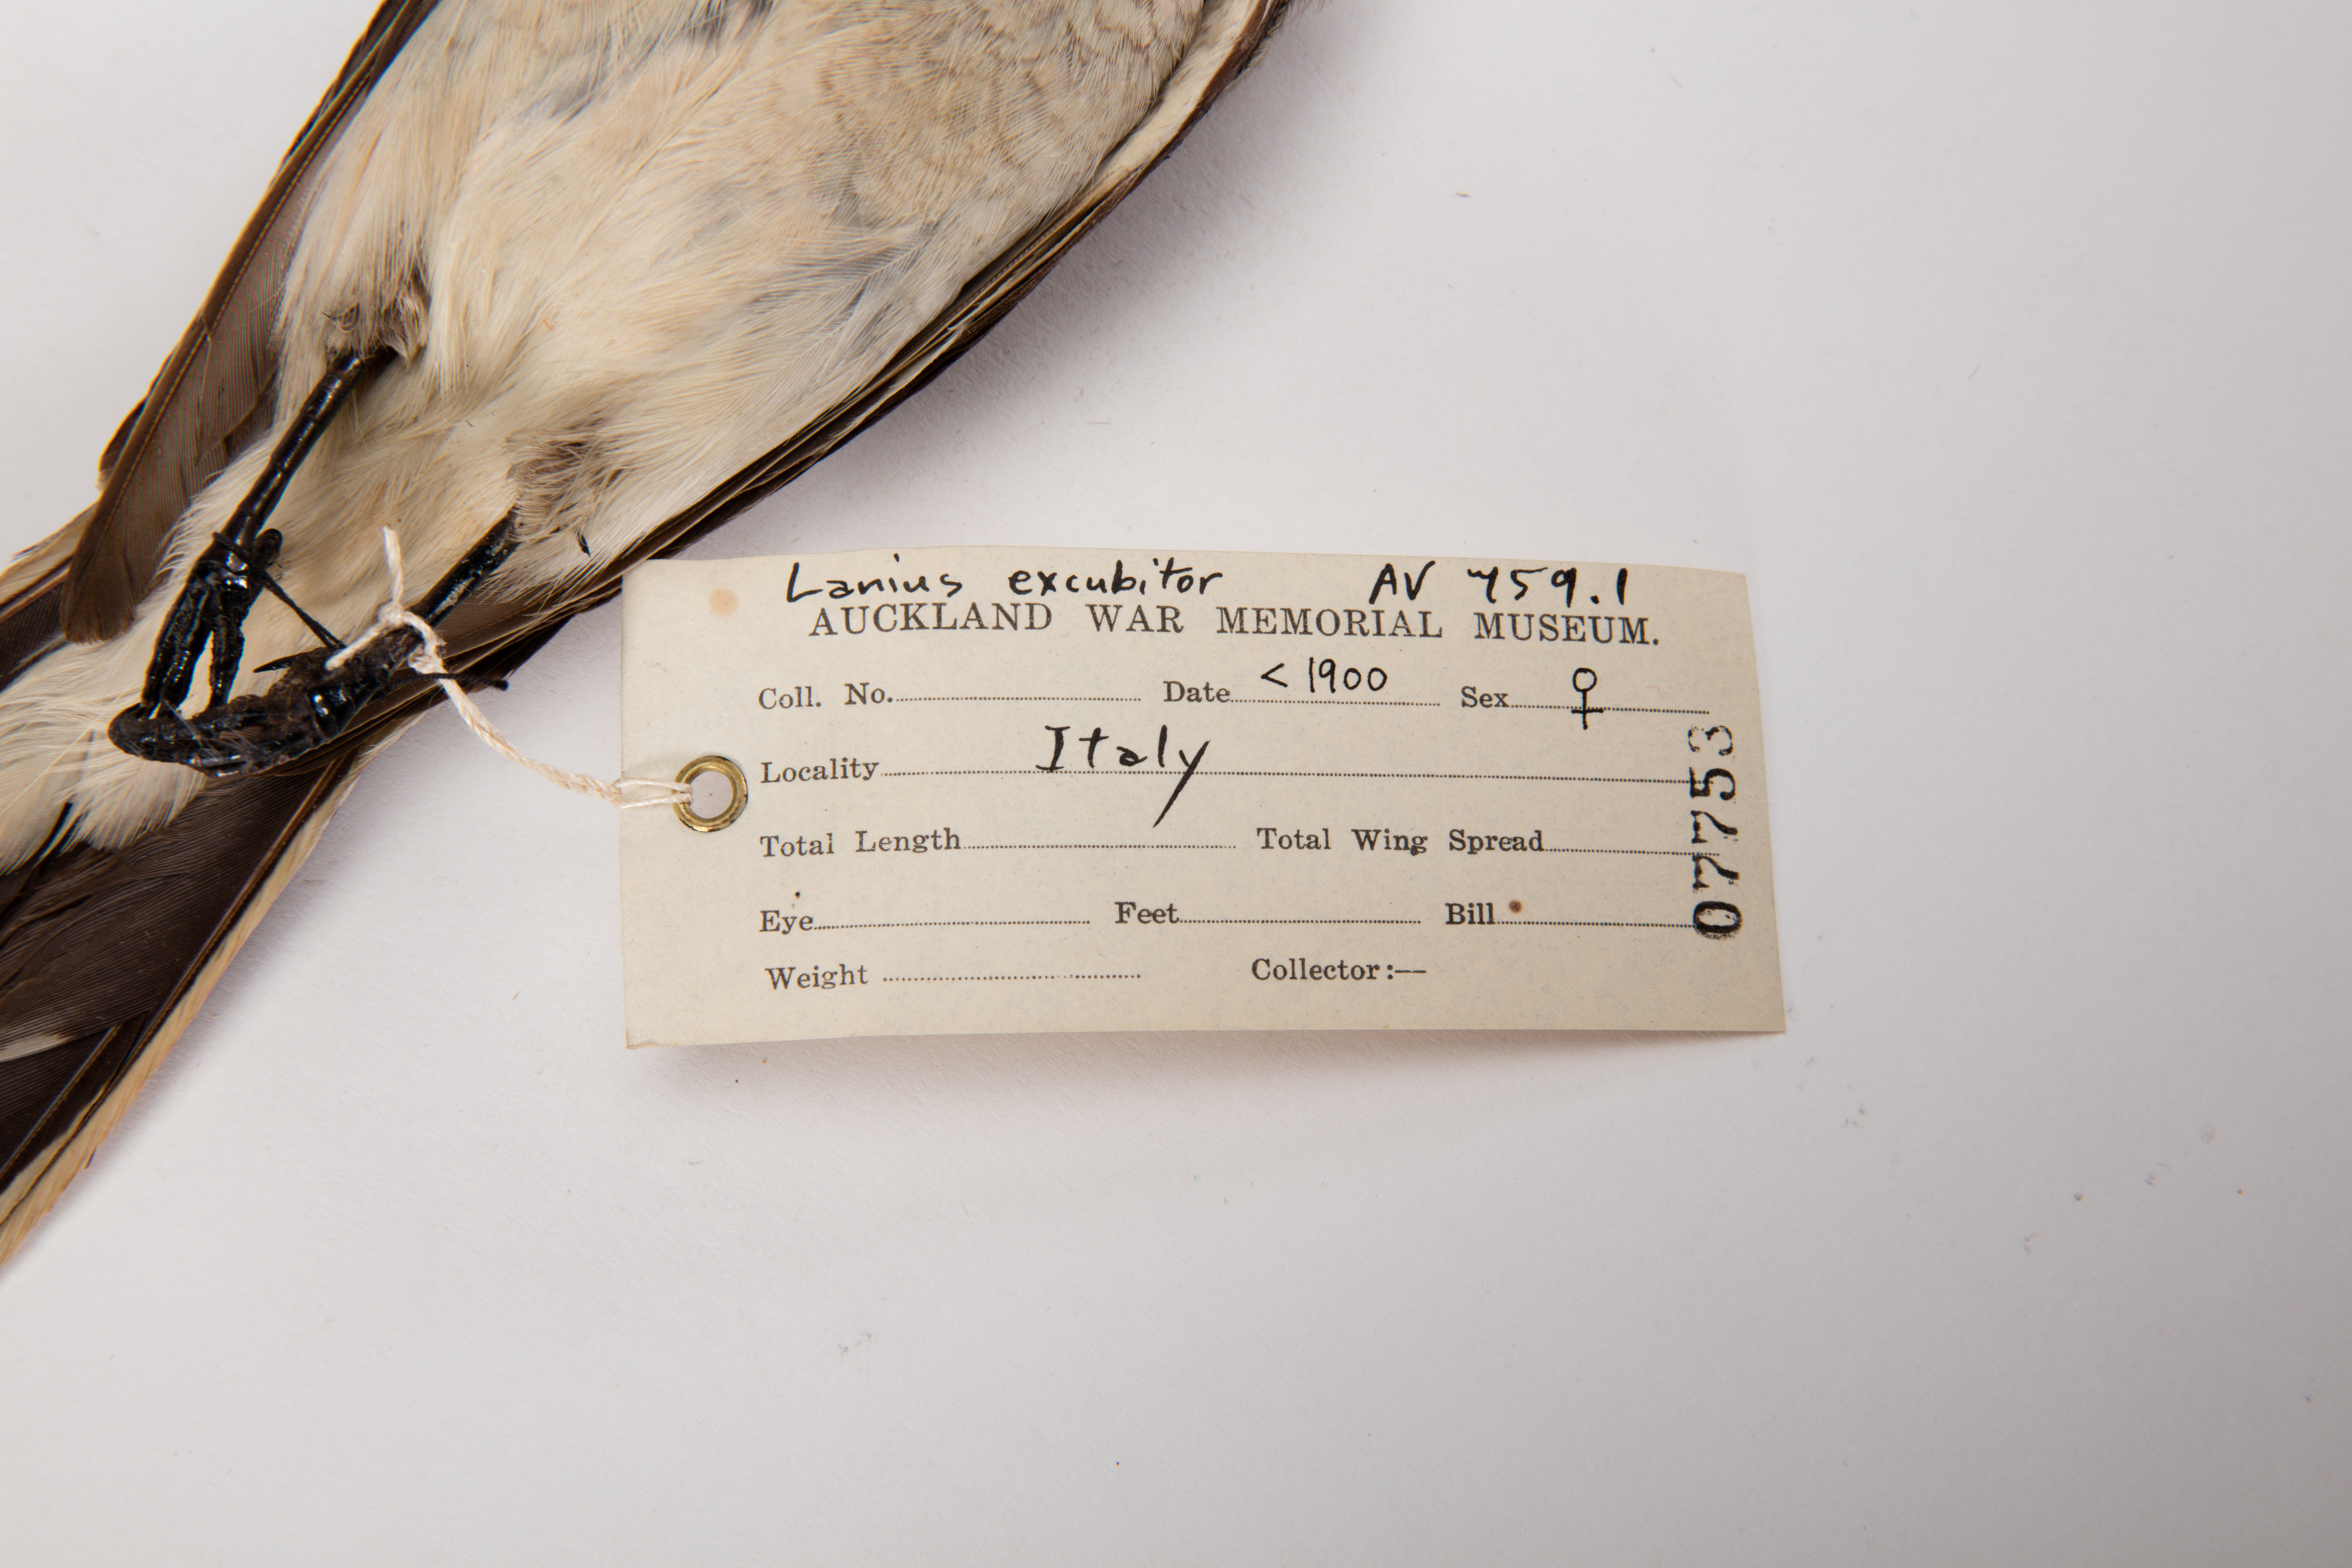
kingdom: Animalia
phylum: Chordata
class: Aves
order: Passeriformes
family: Laniidae
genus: Lanius
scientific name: Lanius excubitor
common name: Great grey shrike
